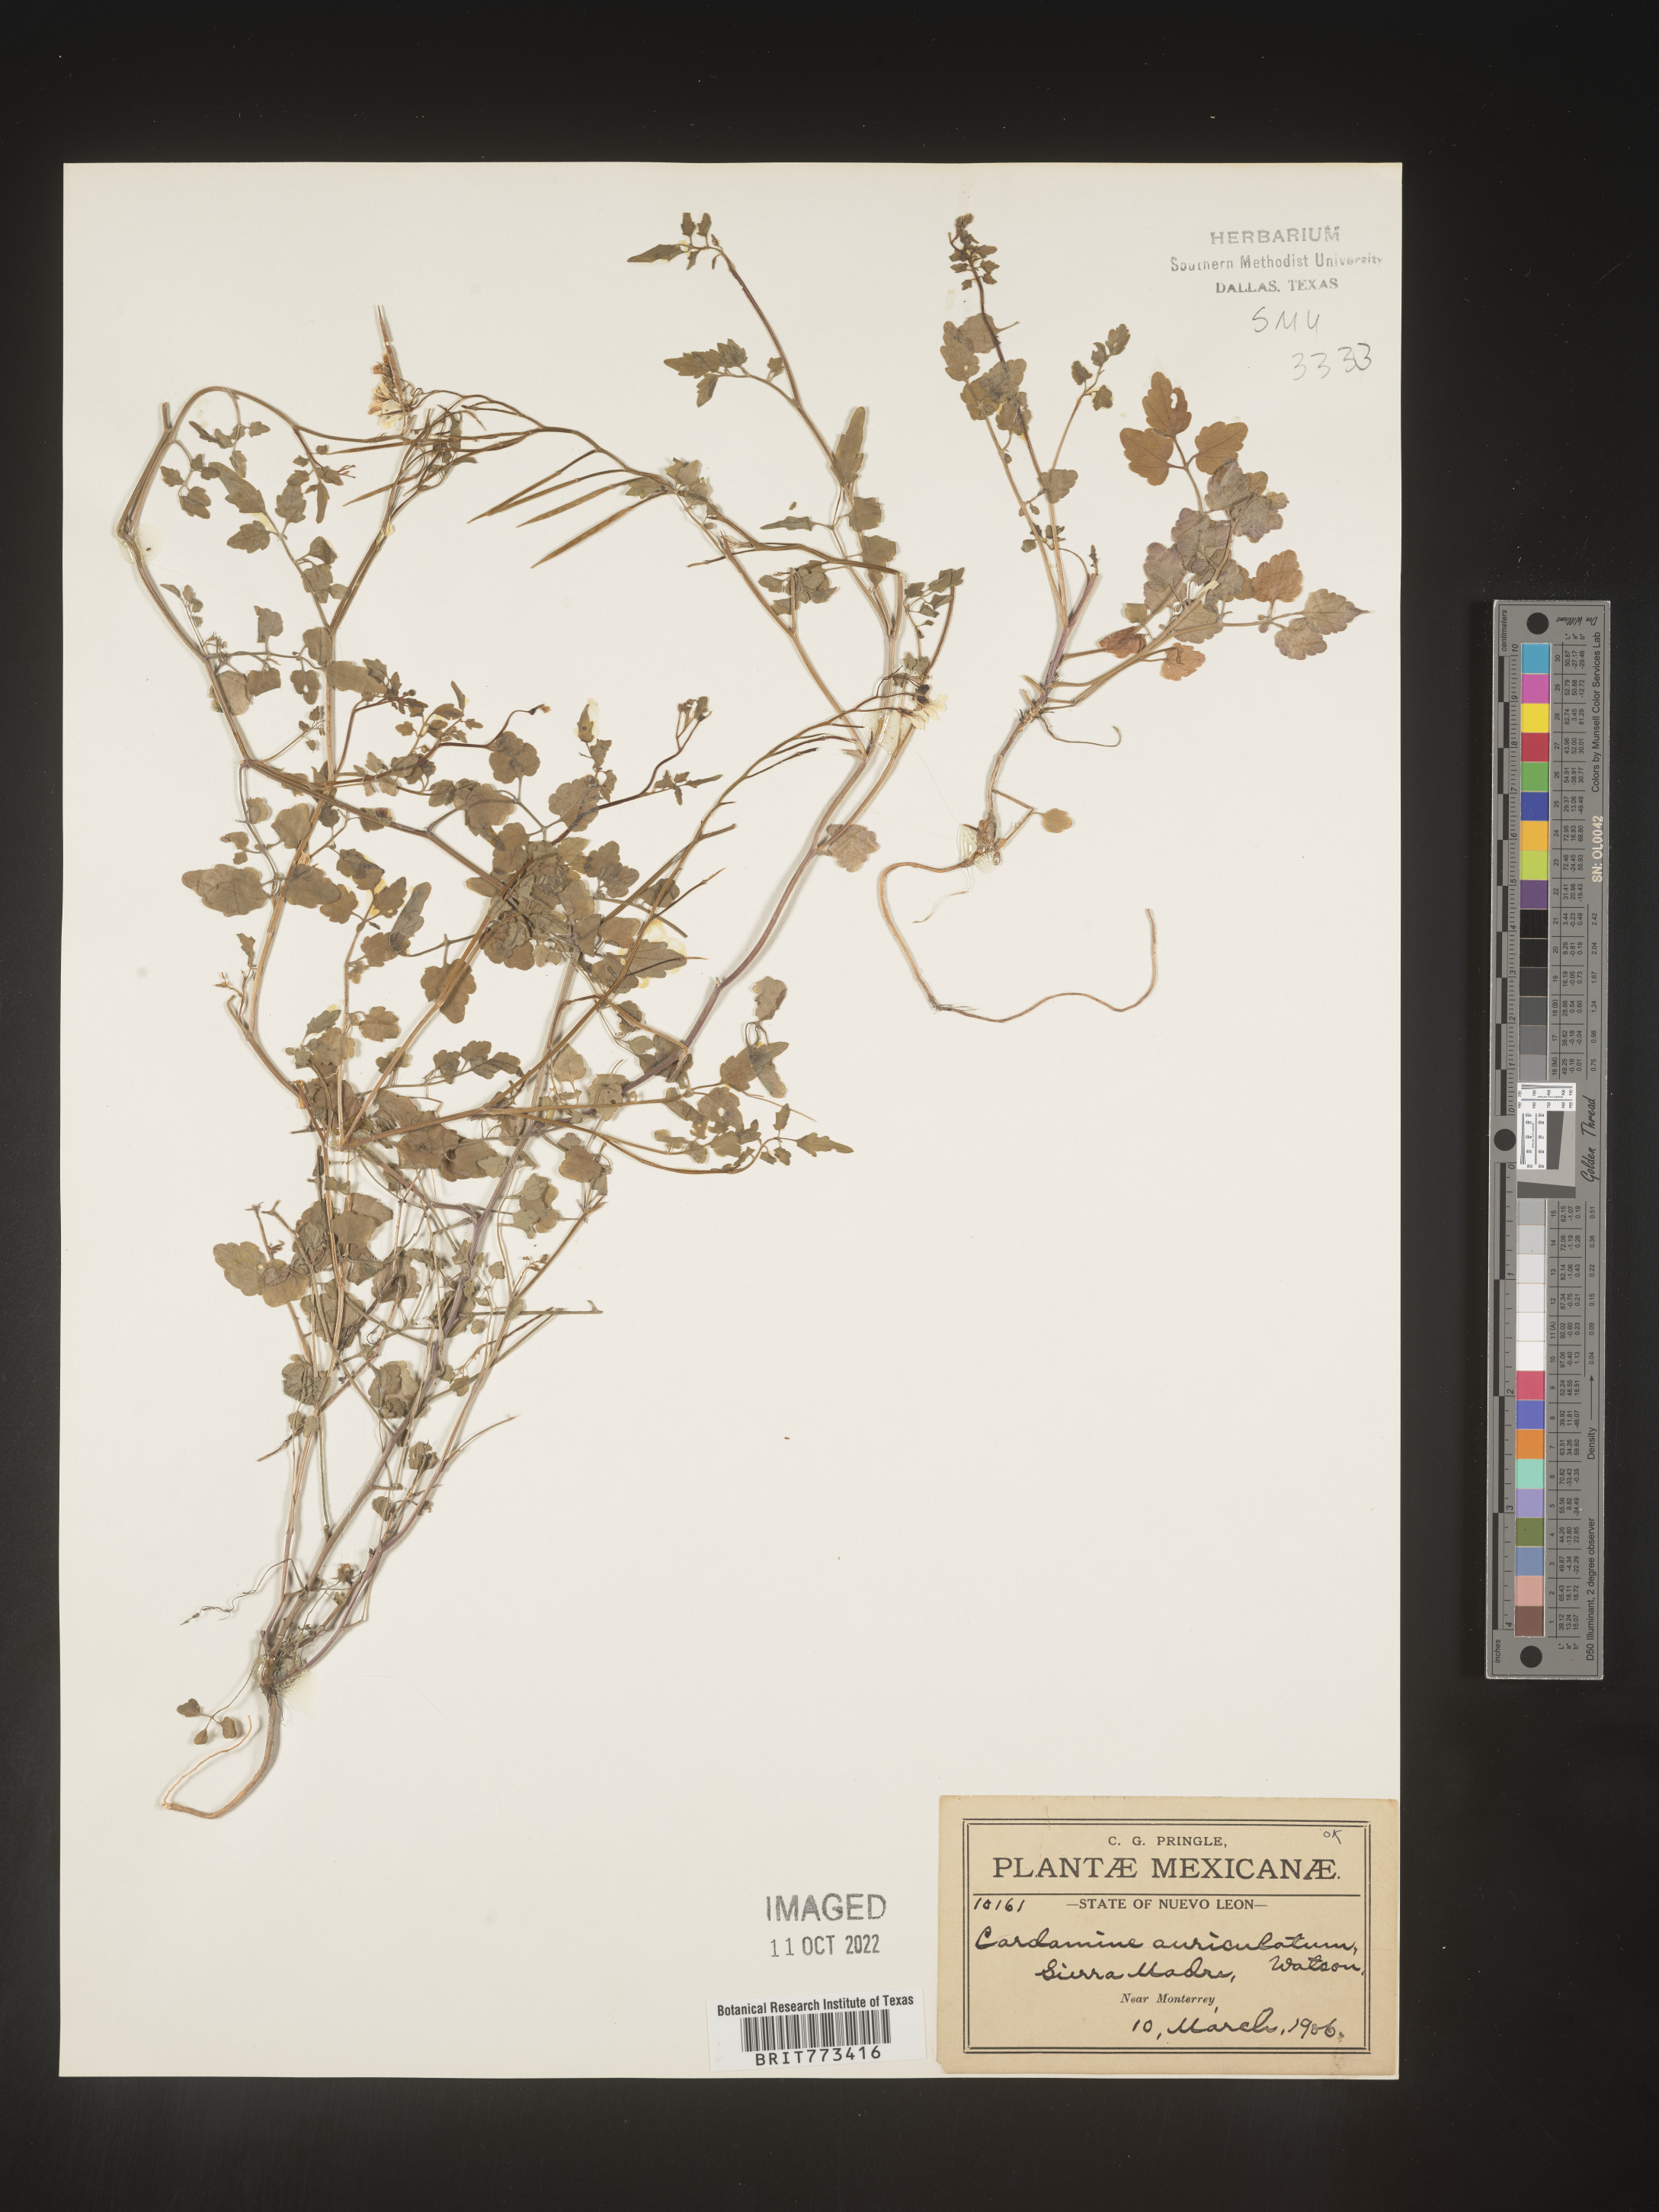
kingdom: Plantae
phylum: Tracheophyta
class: Magnoliopsida
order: Brassicales
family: Brassicaceae
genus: Cardamine
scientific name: Cardamine
